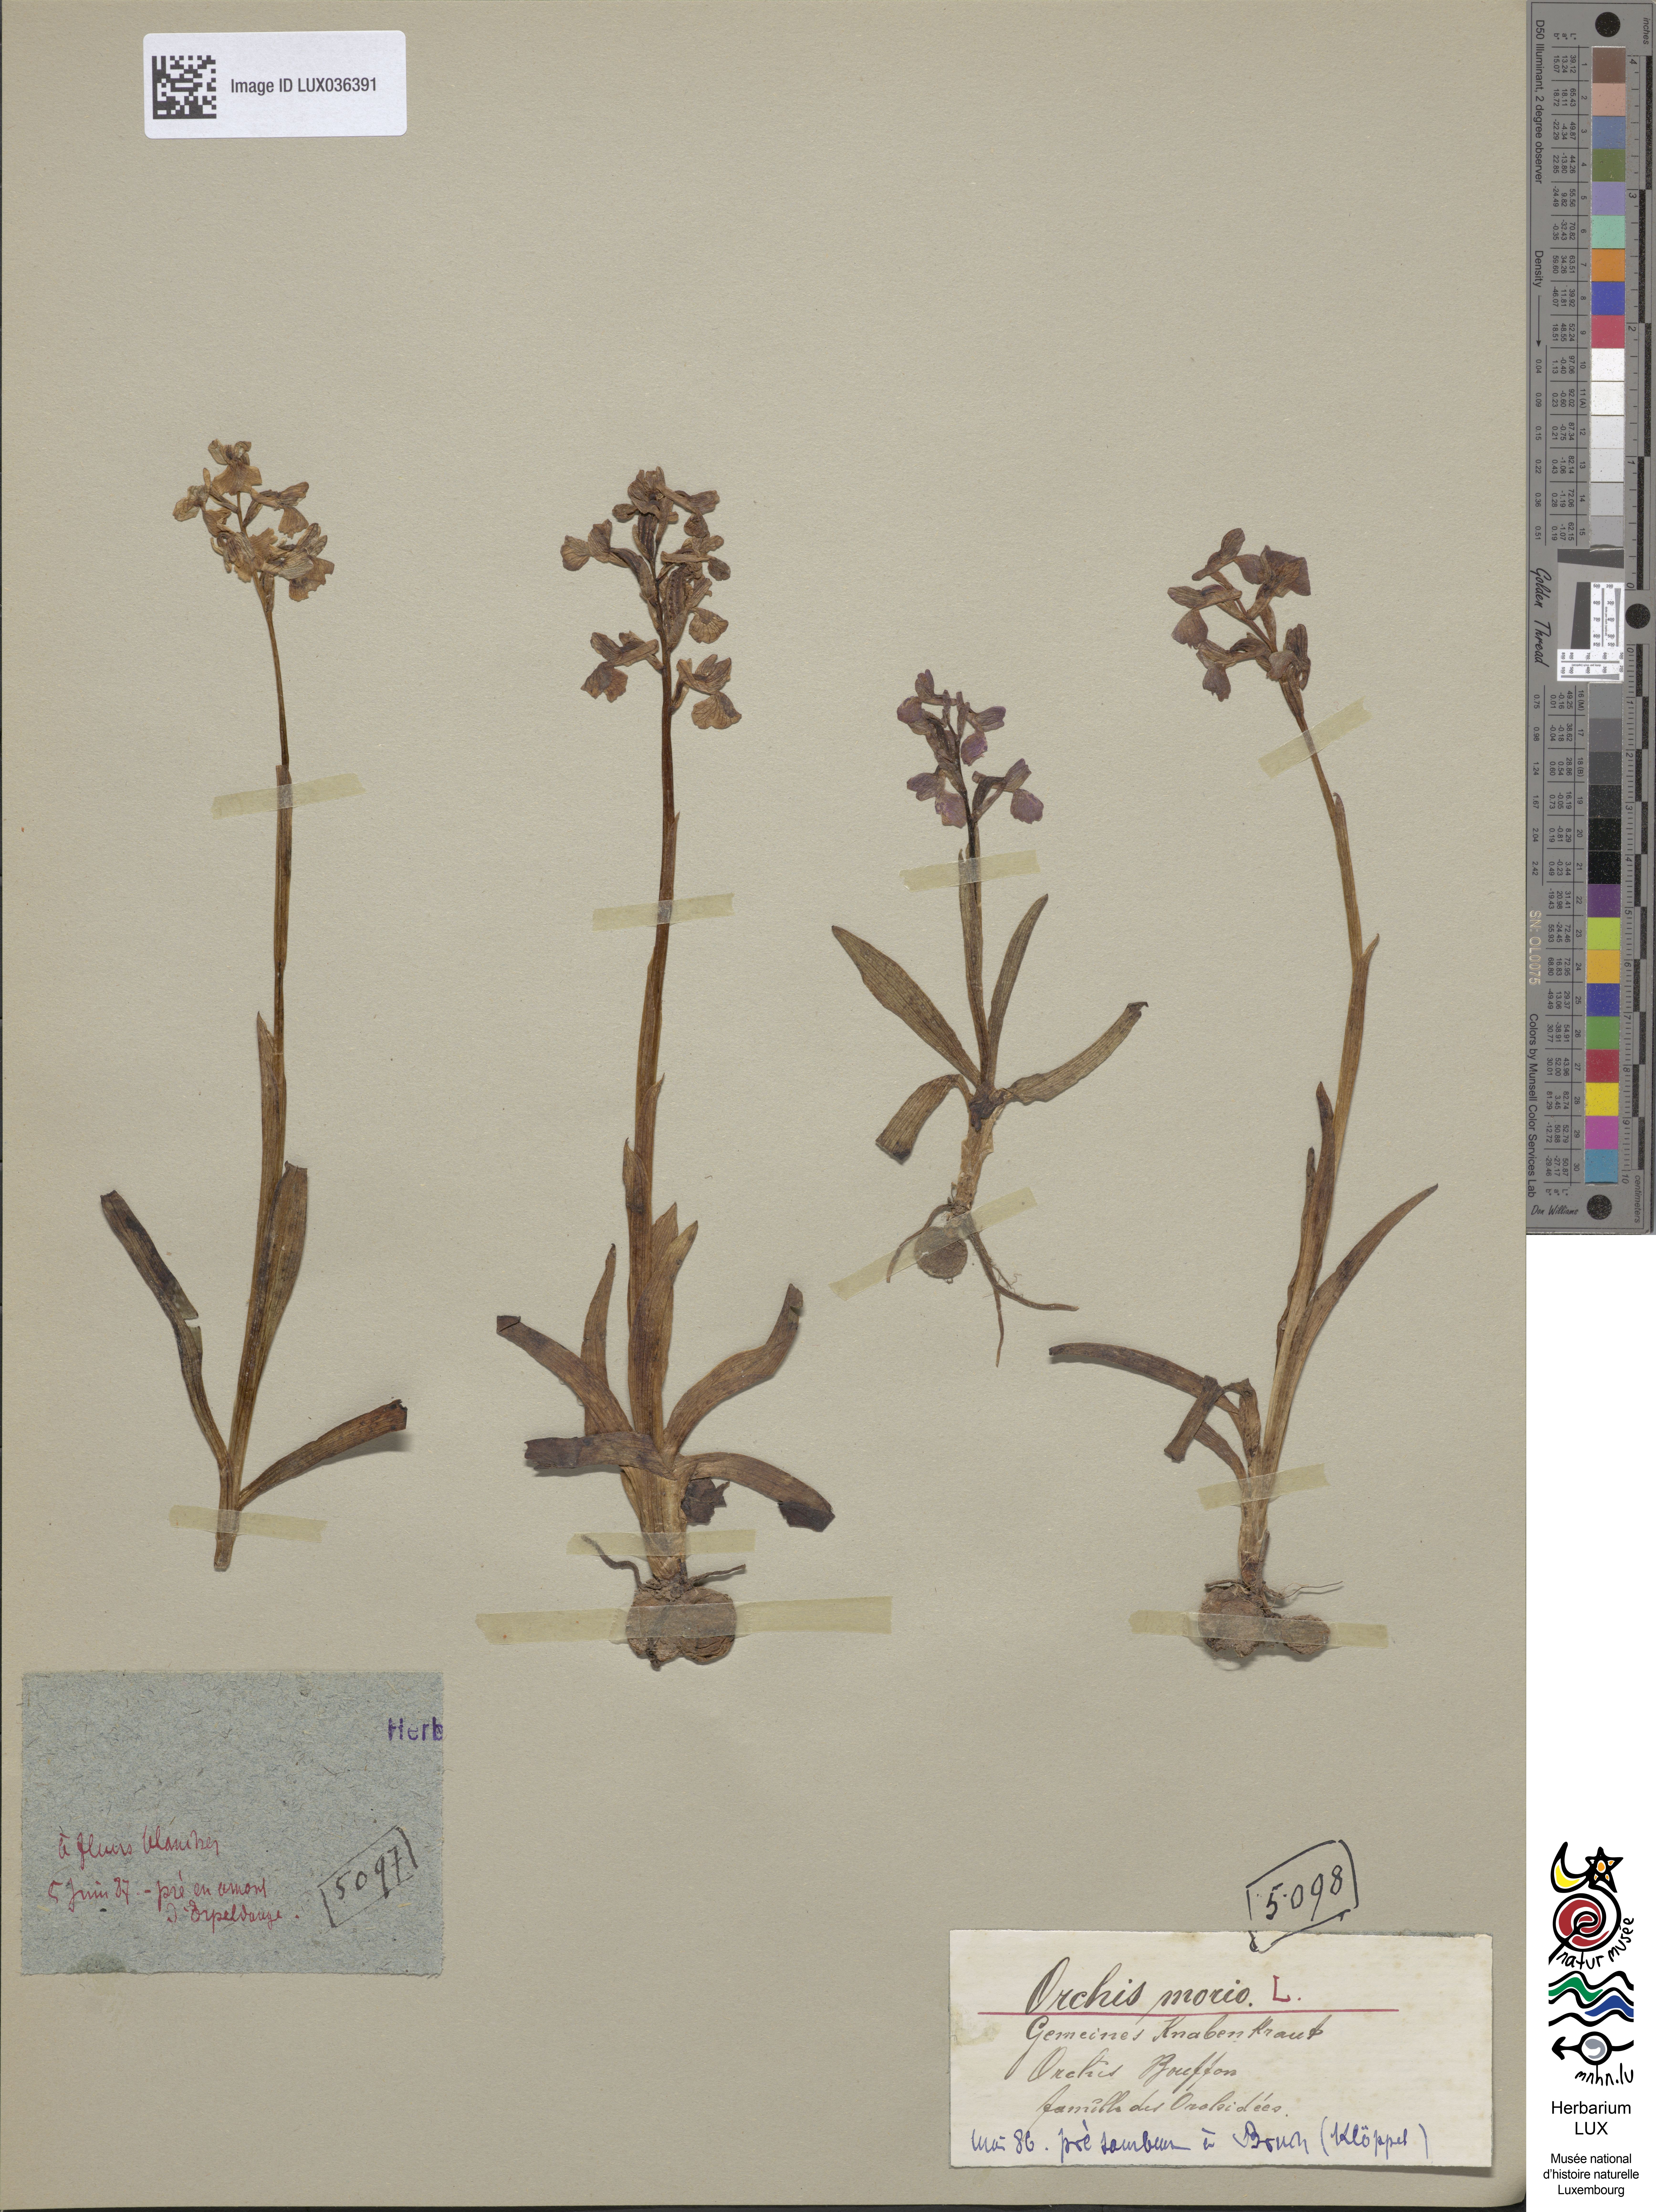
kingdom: Plantae
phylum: Tracheophyta
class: Liliopsida
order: Asparagales
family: Orchidaceae
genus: Anacamptis
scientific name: Anacamptis morio
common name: Green-winged orchid
